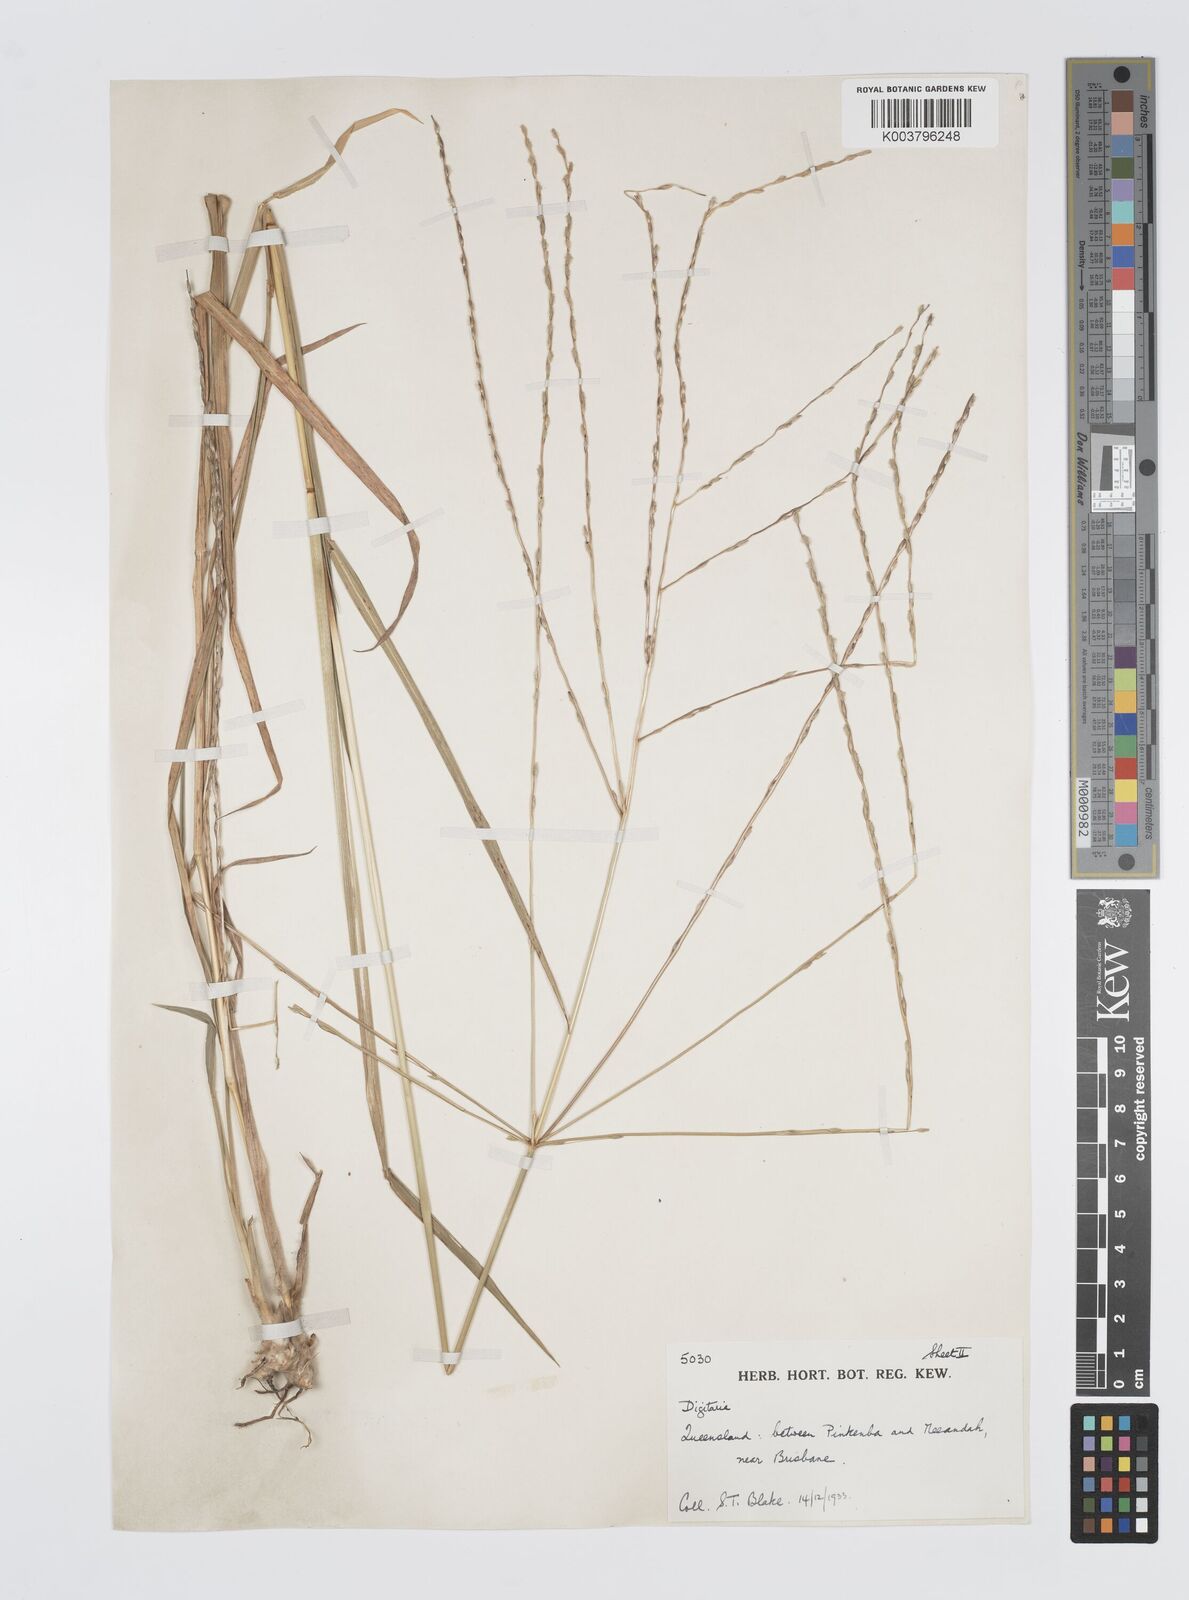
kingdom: Plantae
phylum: Tracheophyta
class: Liliopsida
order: Poales
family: Poaceae
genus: Digitaria
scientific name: Digitaria divaricatissima
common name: Crabgrass
